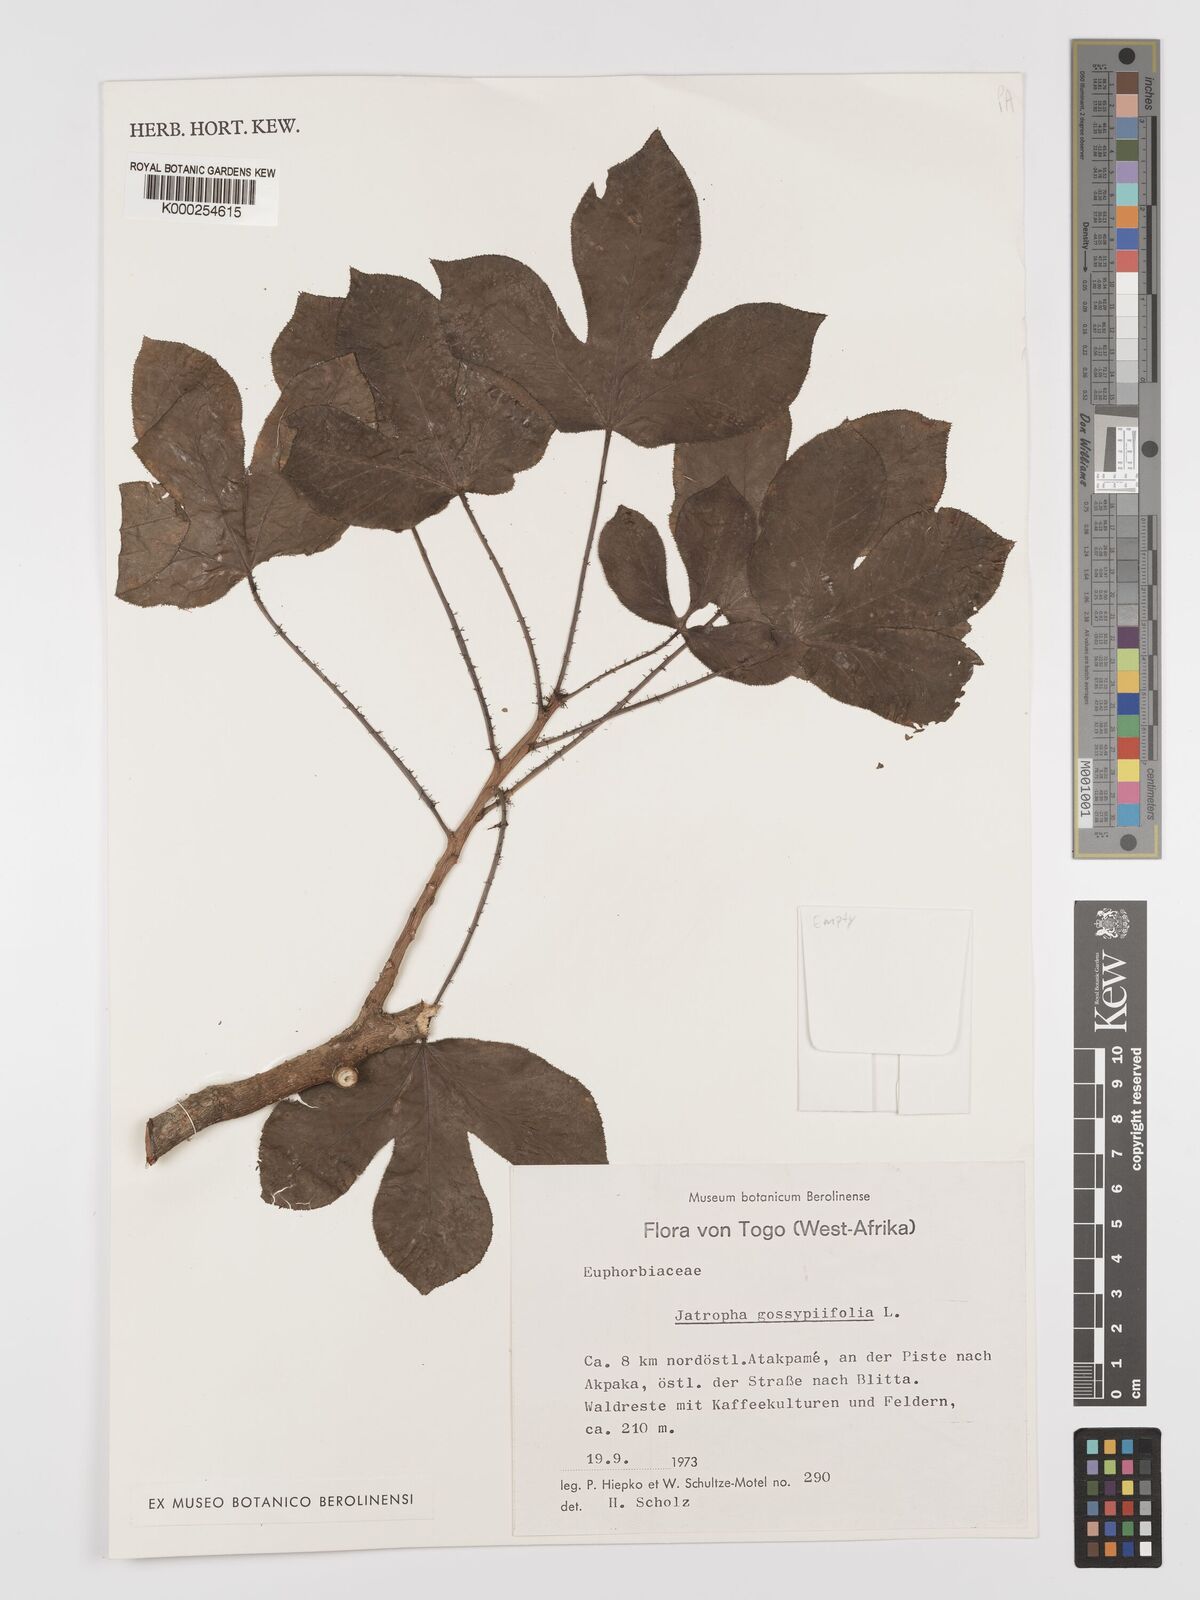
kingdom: Plantae
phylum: Tracheophyta
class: Magnoliopsida
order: Malpighiales
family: Euphorbiaceae
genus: Jatropha
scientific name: Jatropha gossypiifolia
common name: Bellyache bush
